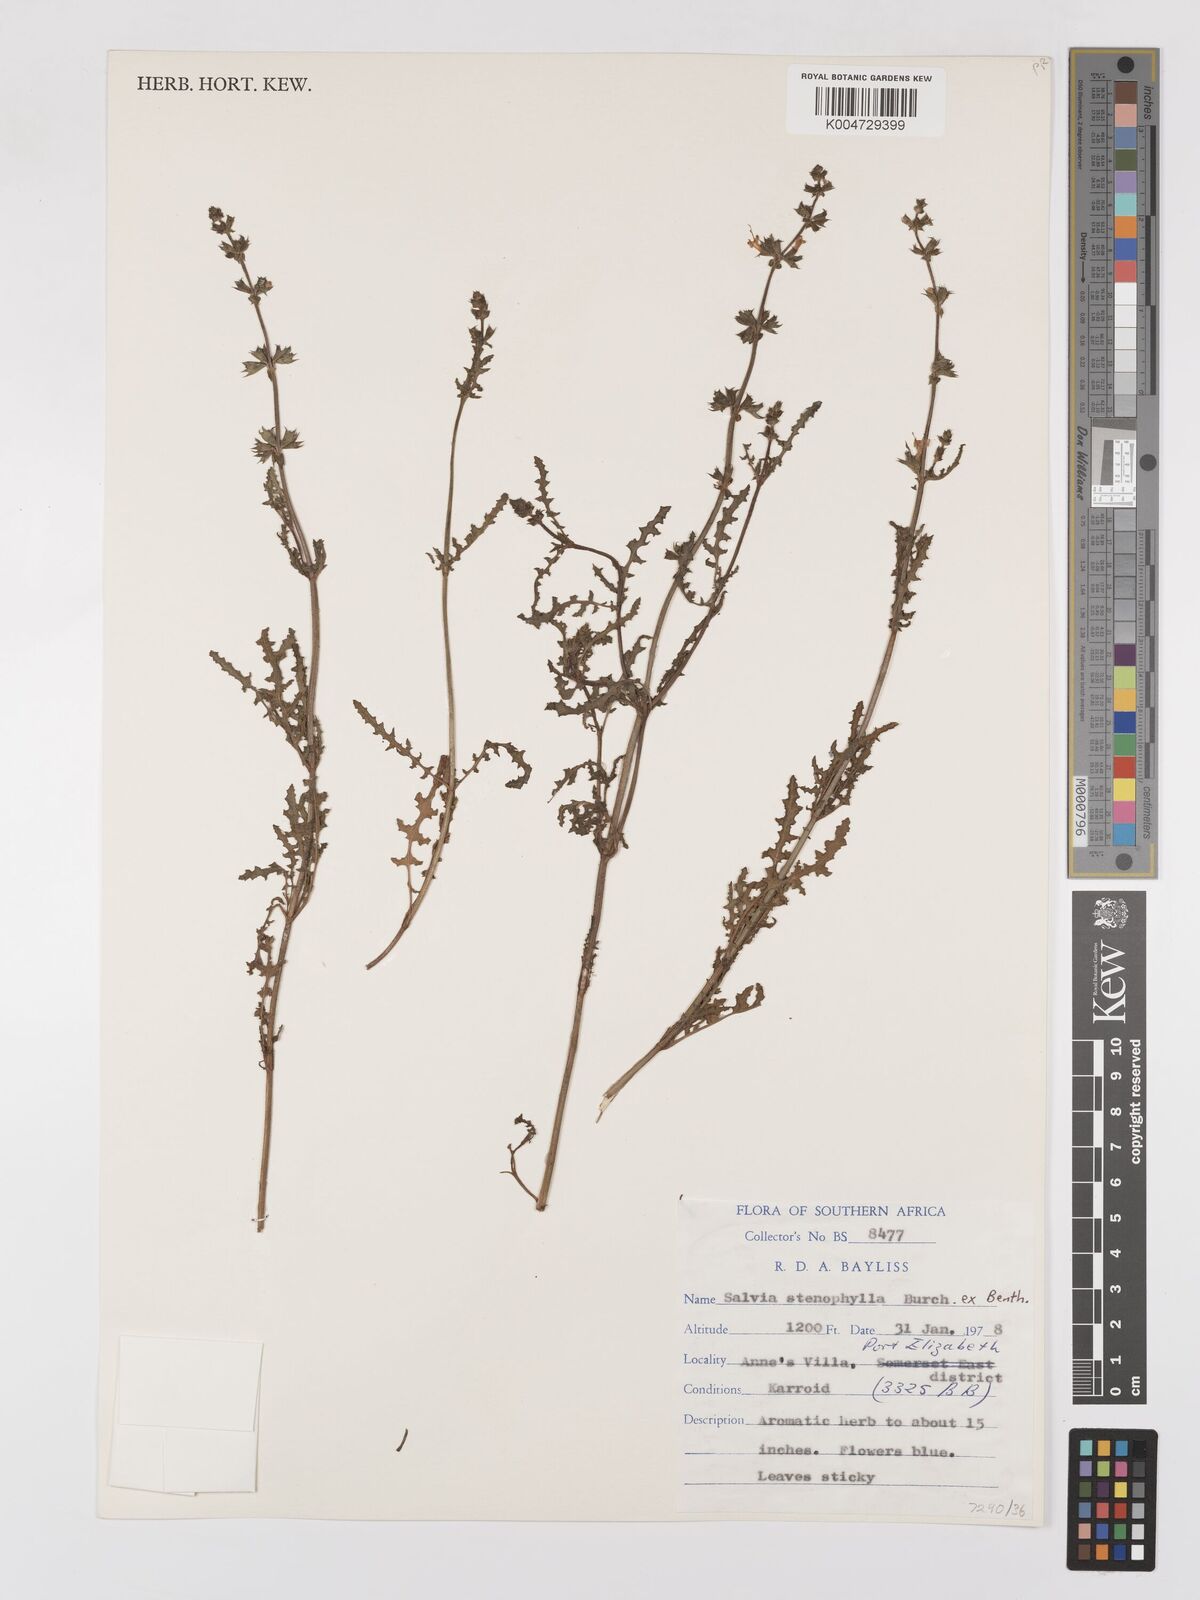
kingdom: Plantae
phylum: Tracheophyta
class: Magnoliopsida
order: Lamiales
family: Lamiaceae
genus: Salvia
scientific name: Salvia stenophylla
